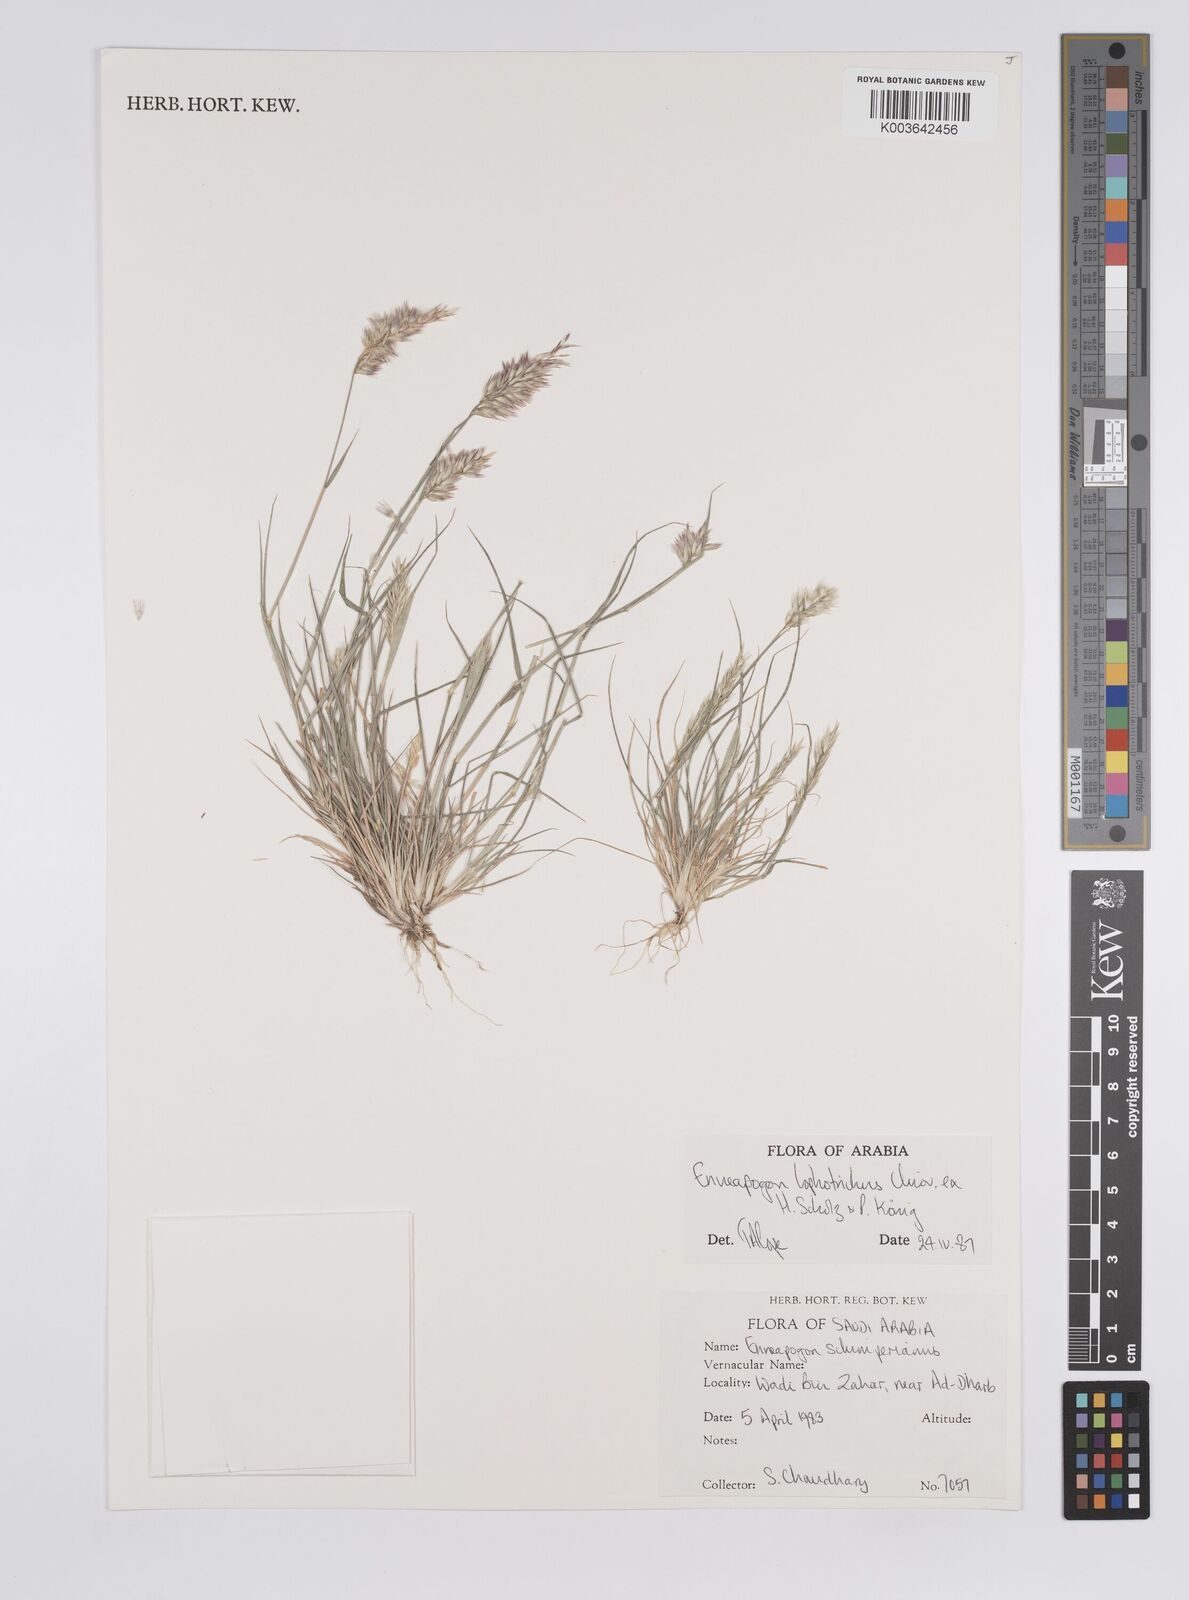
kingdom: Plantae
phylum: Tracheophyta
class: Liliopsida
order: Poales
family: Poaceae
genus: Enneapogon
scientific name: Enneapogon lophotrichus
